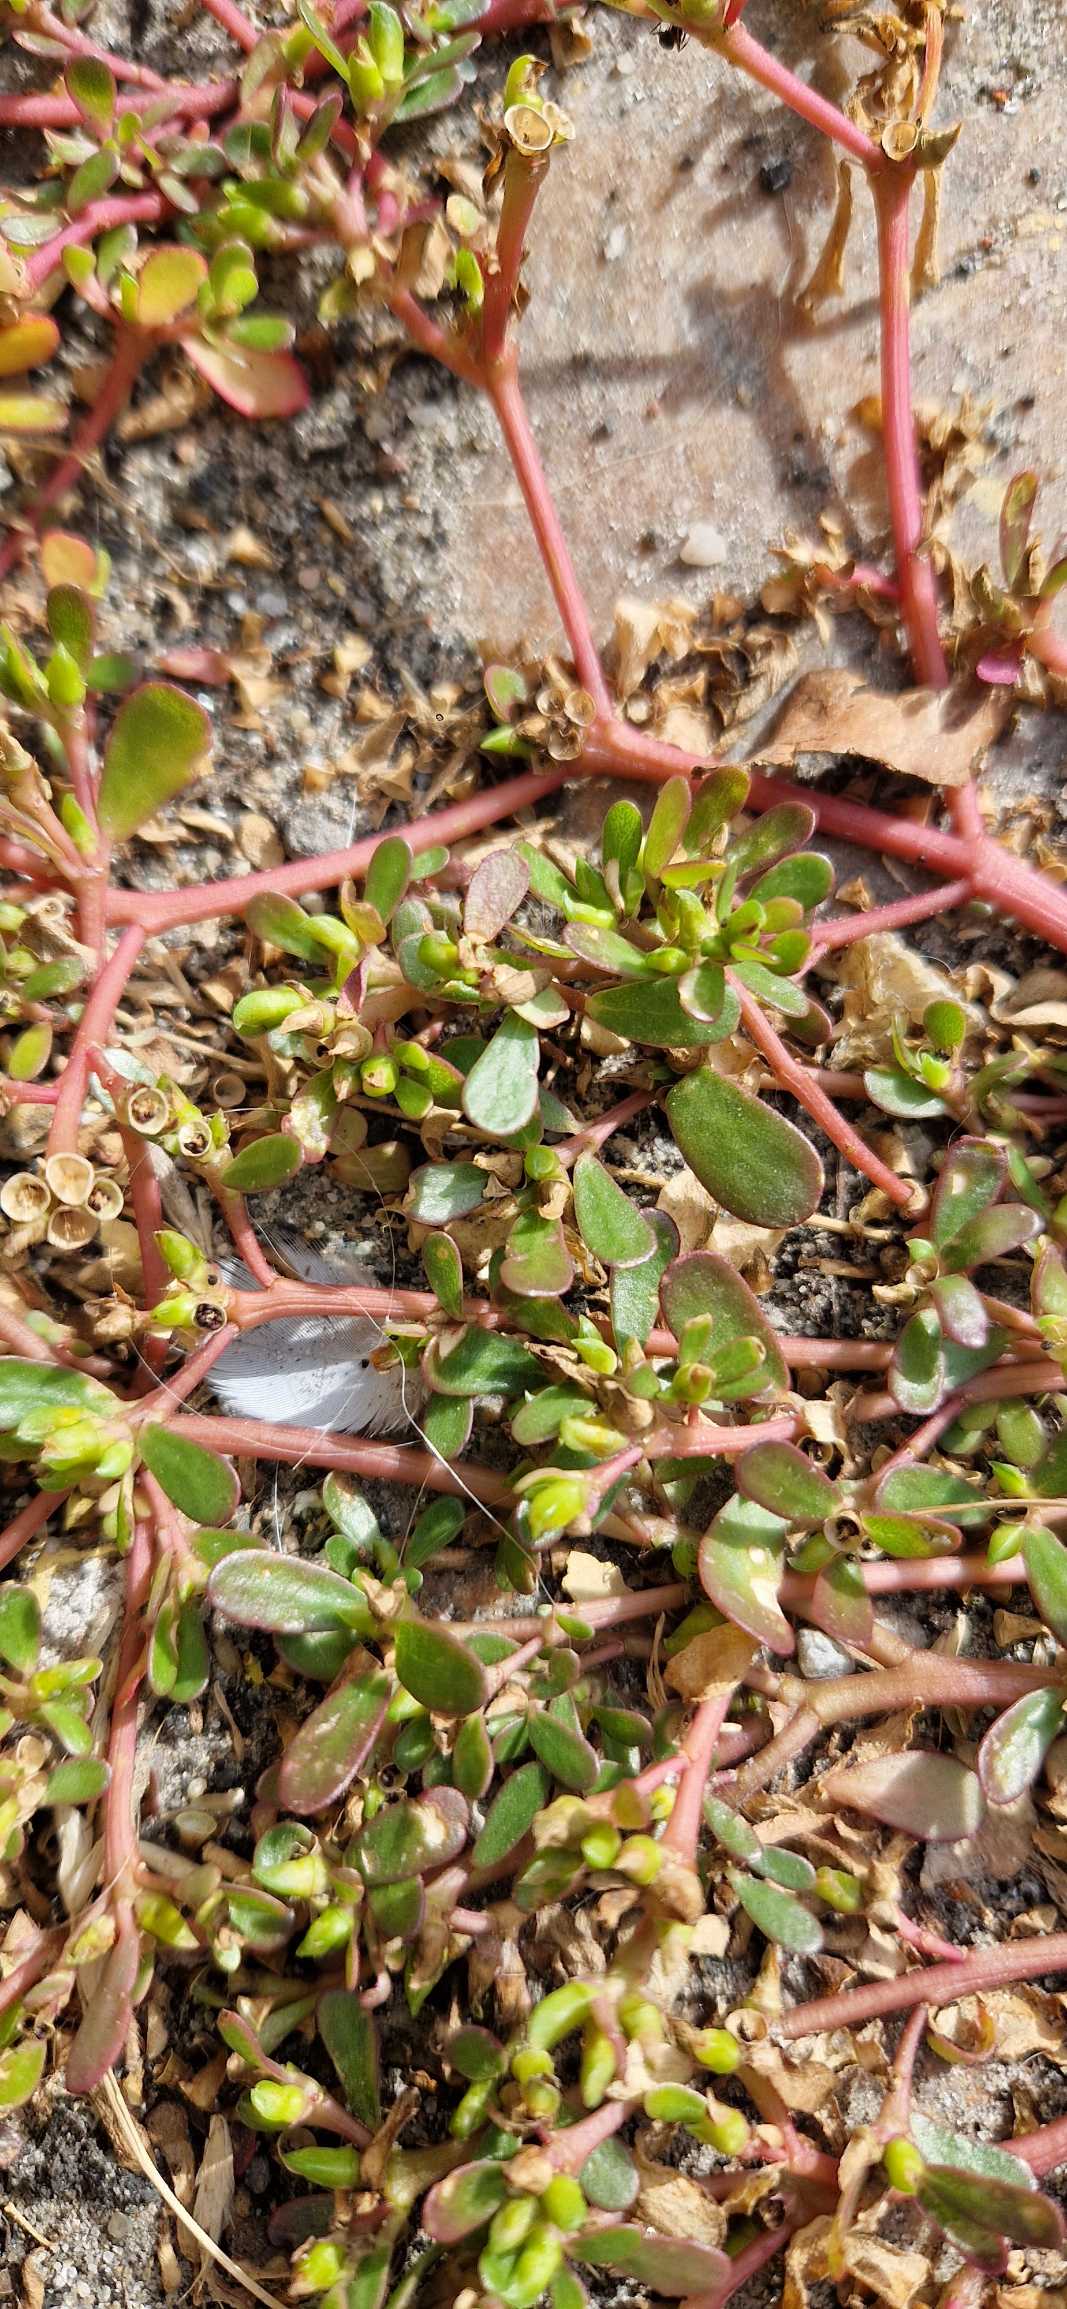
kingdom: Plantae
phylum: Tracheophyta
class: Magnoliopsida
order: Caryophyllales
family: Portulacaceae
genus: Portulaca
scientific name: Portulaca oleracea
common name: Vild portulak
